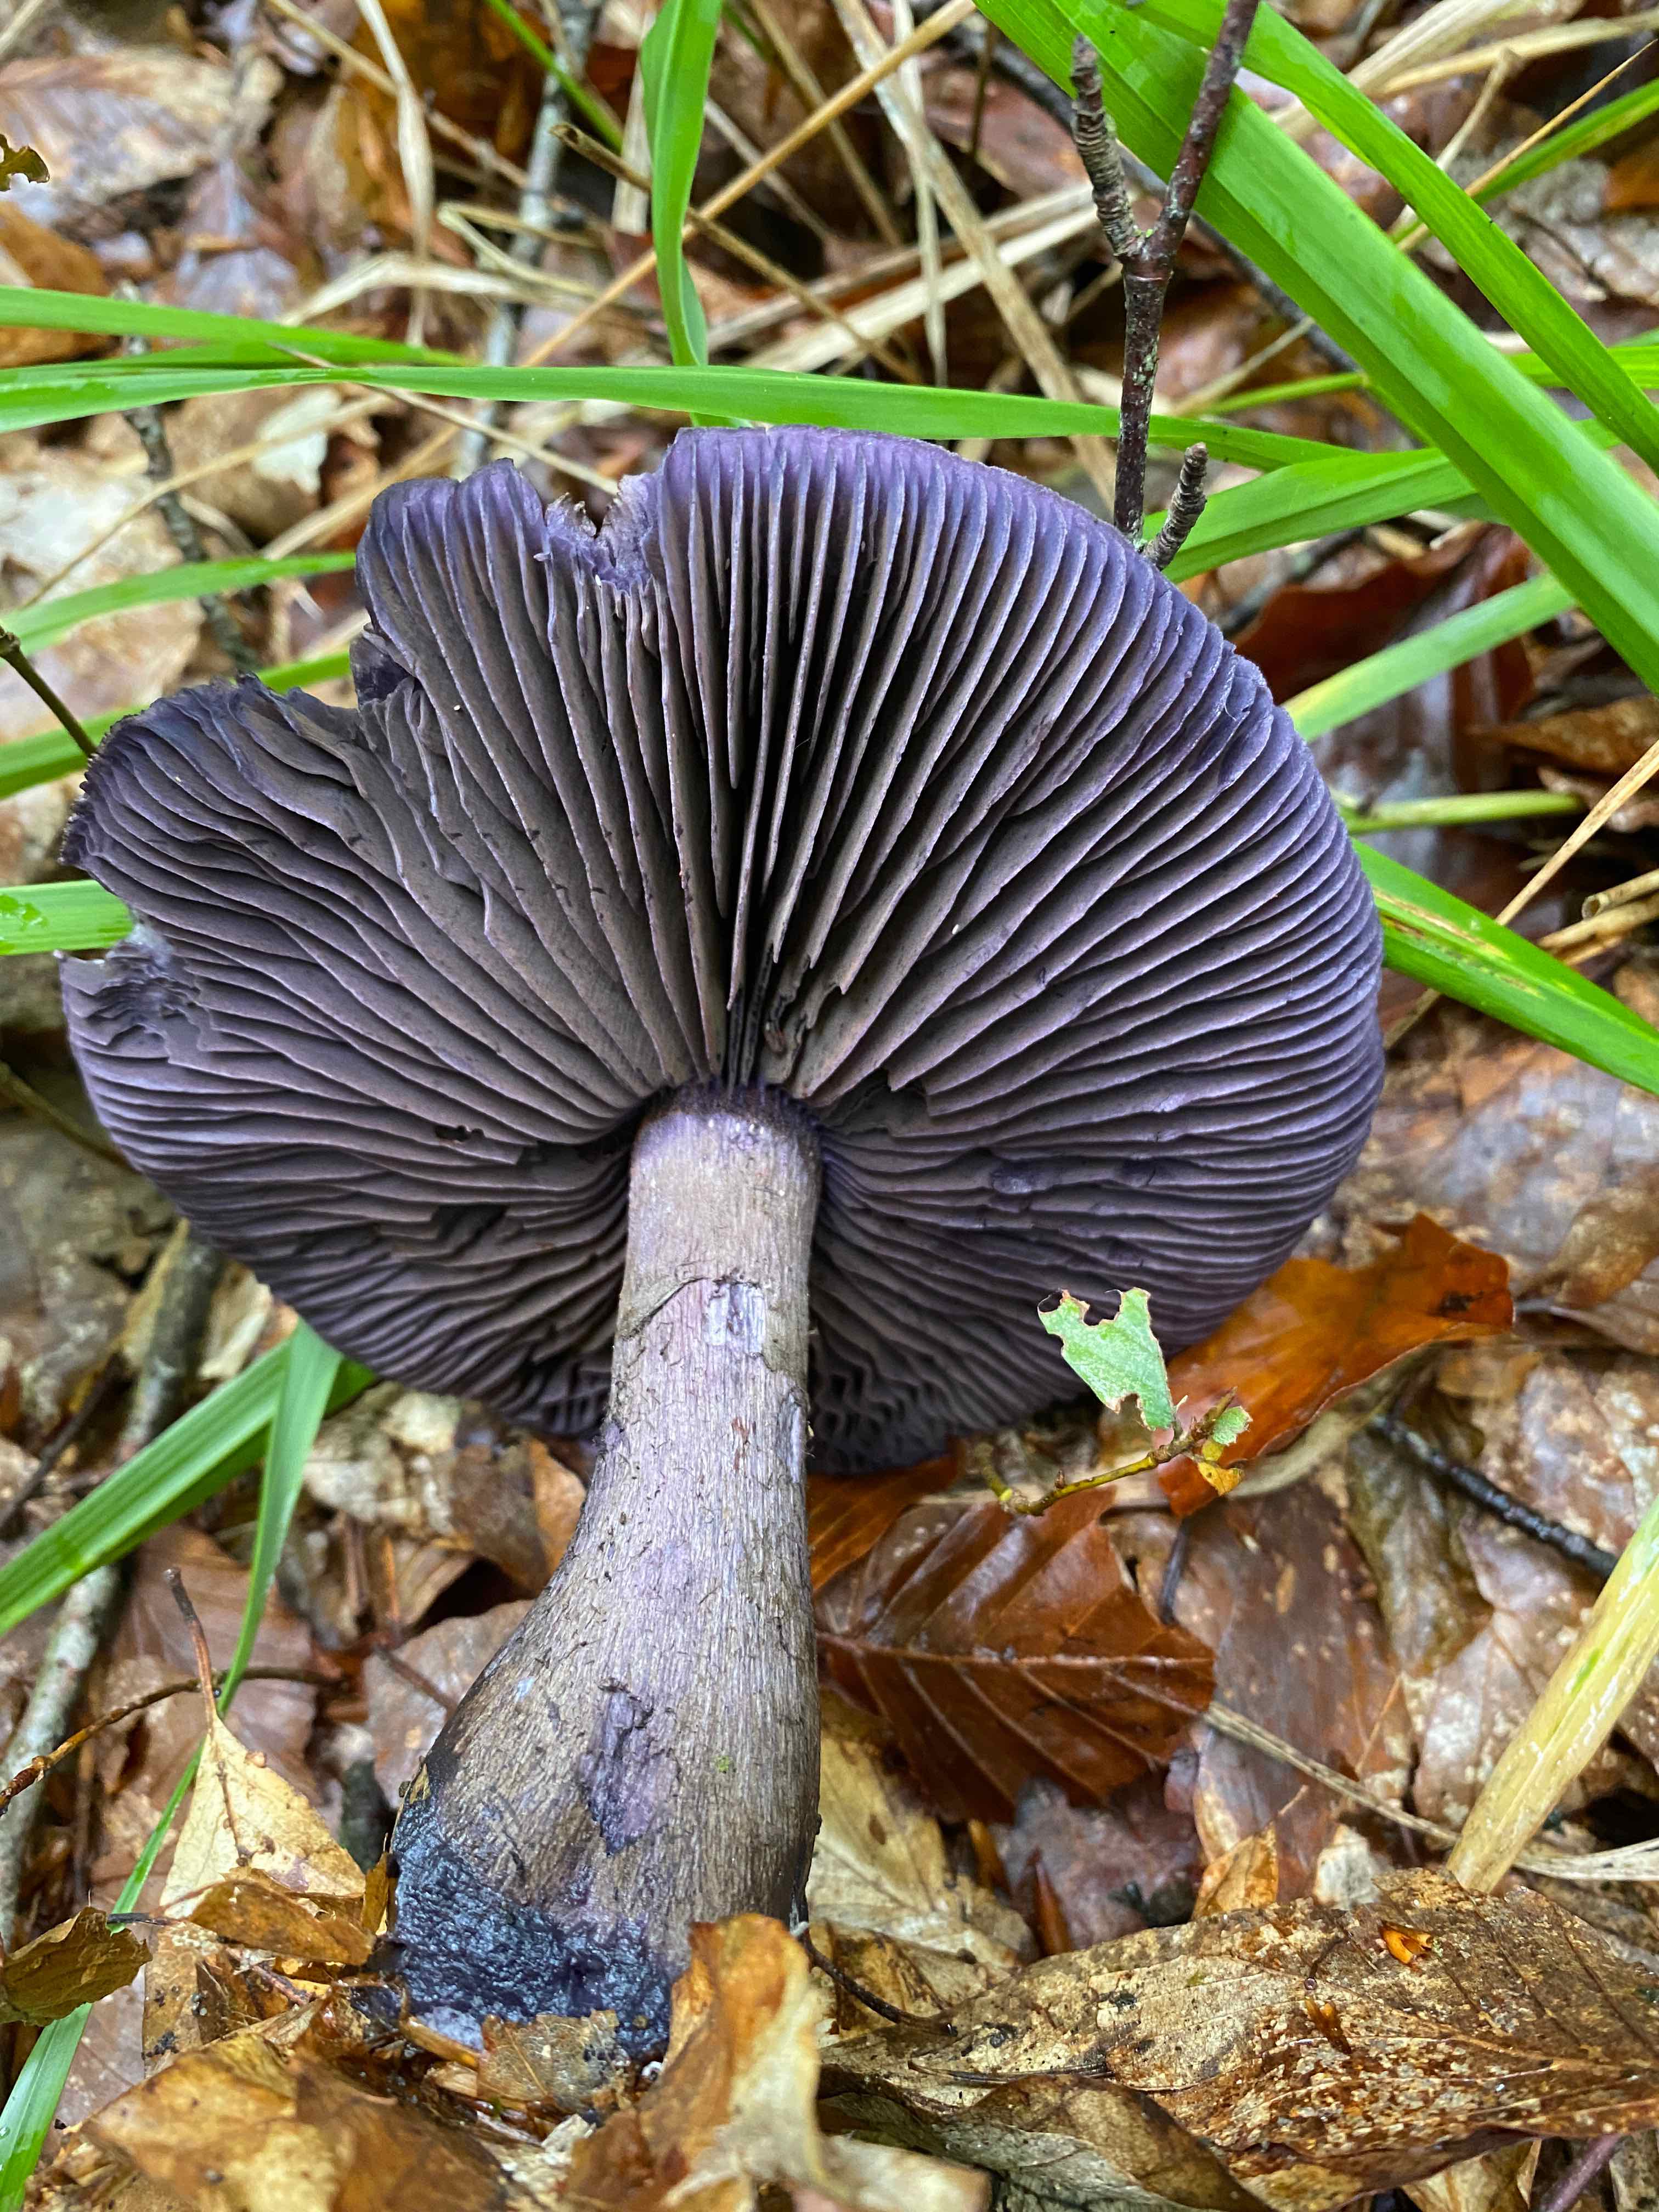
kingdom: Fungi
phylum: Basidiomycota
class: Agaricomycetes
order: Agaricales
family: Cortinariaceae
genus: Cortinarius
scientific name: Cortinarius violaceus
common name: mørkviolet slørhat
